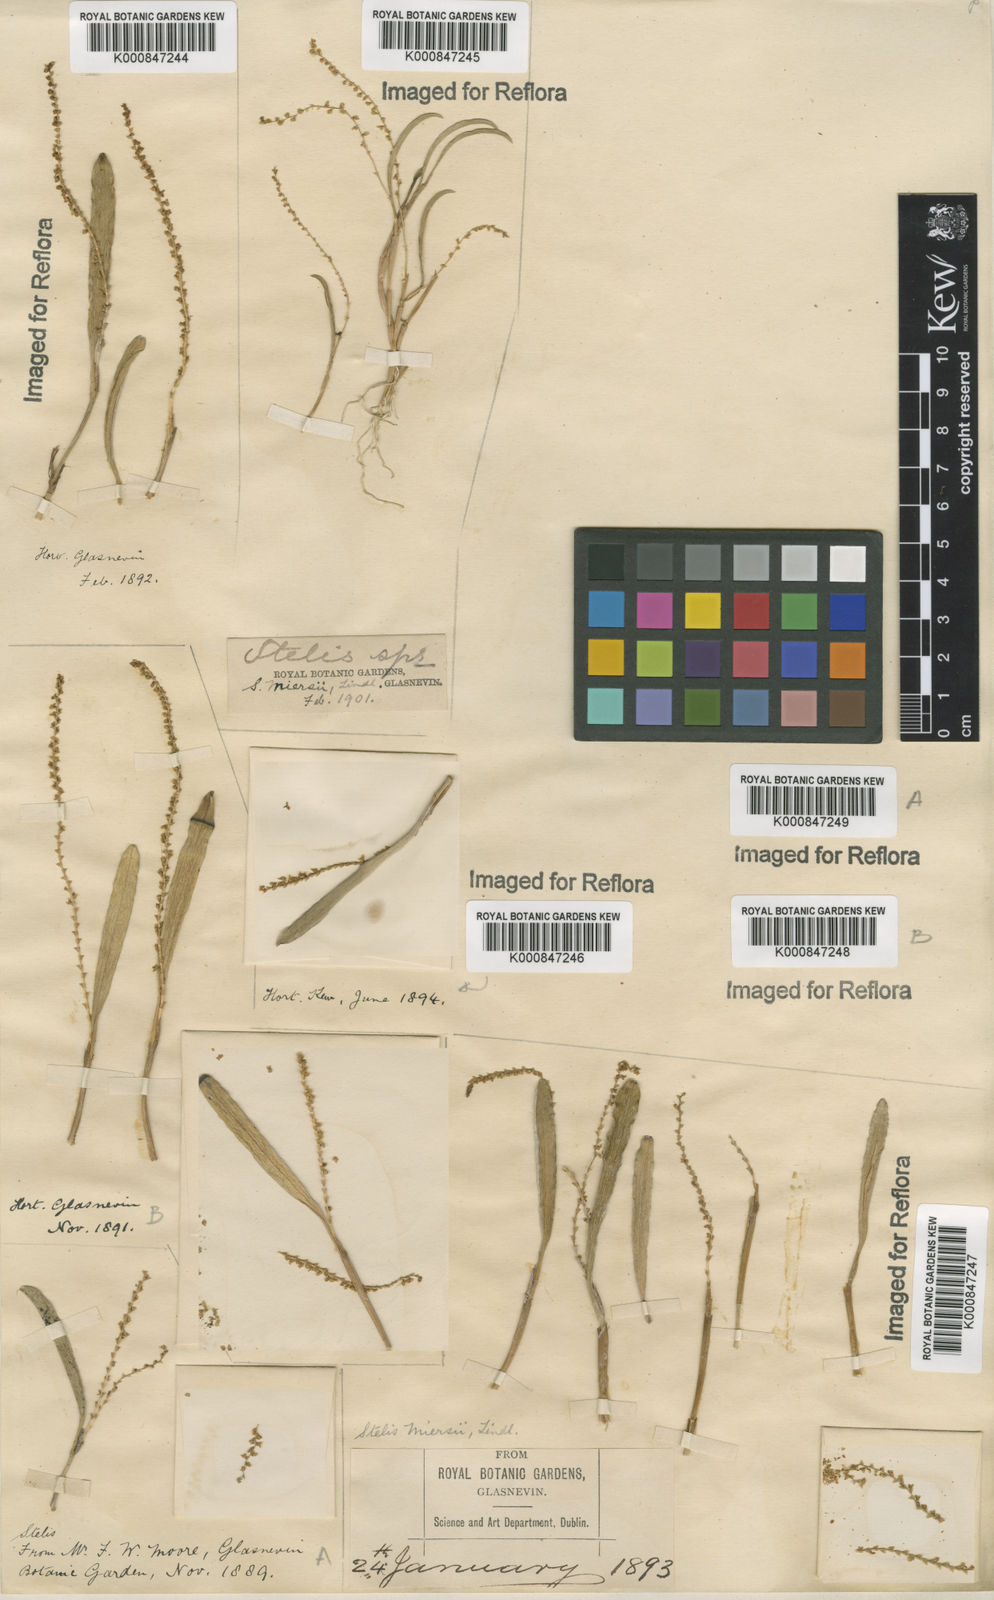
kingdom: Plantae
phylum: Tracheophyta
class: Liliopsida
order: Asparagales
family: Orchidaceae
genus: Stelis
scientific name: Stelis aprica
